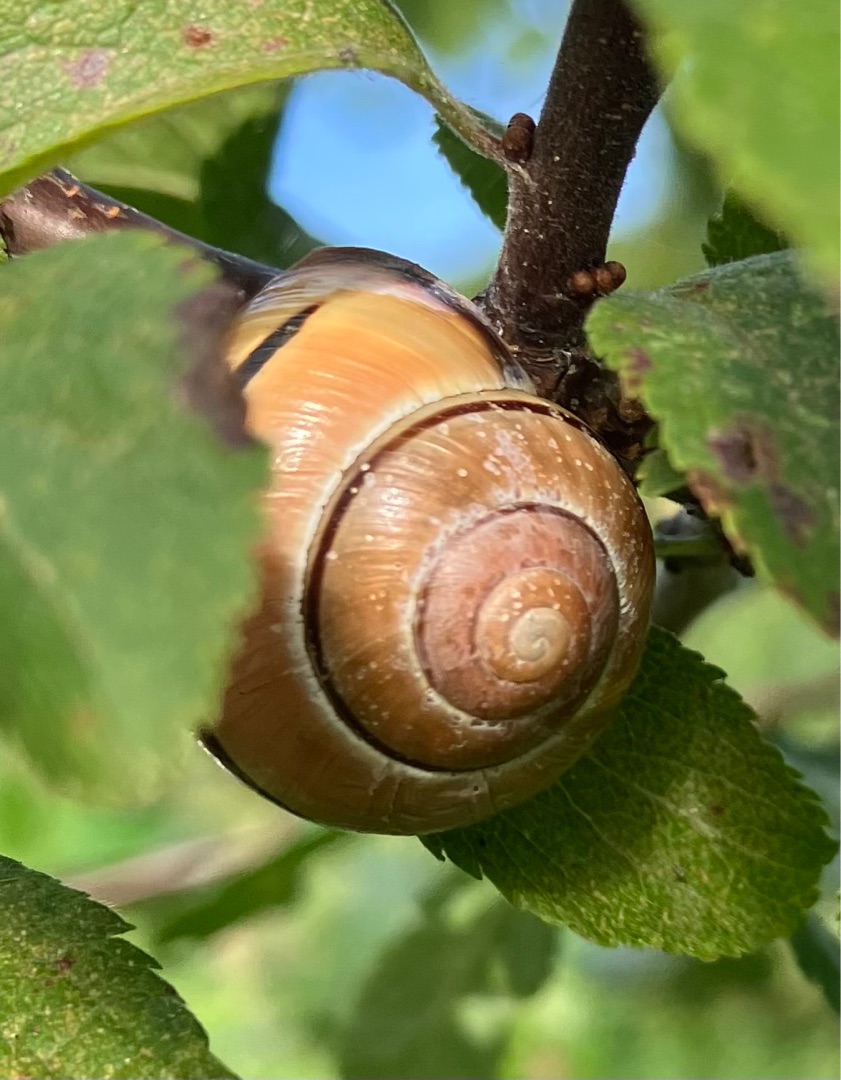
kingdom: Animalia
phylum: Mollusca
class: Gastropoda
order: Stylommatophora
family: Helicidae
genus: Cepaea
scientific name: Cepaea nemoralis
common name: Lundsnegl
